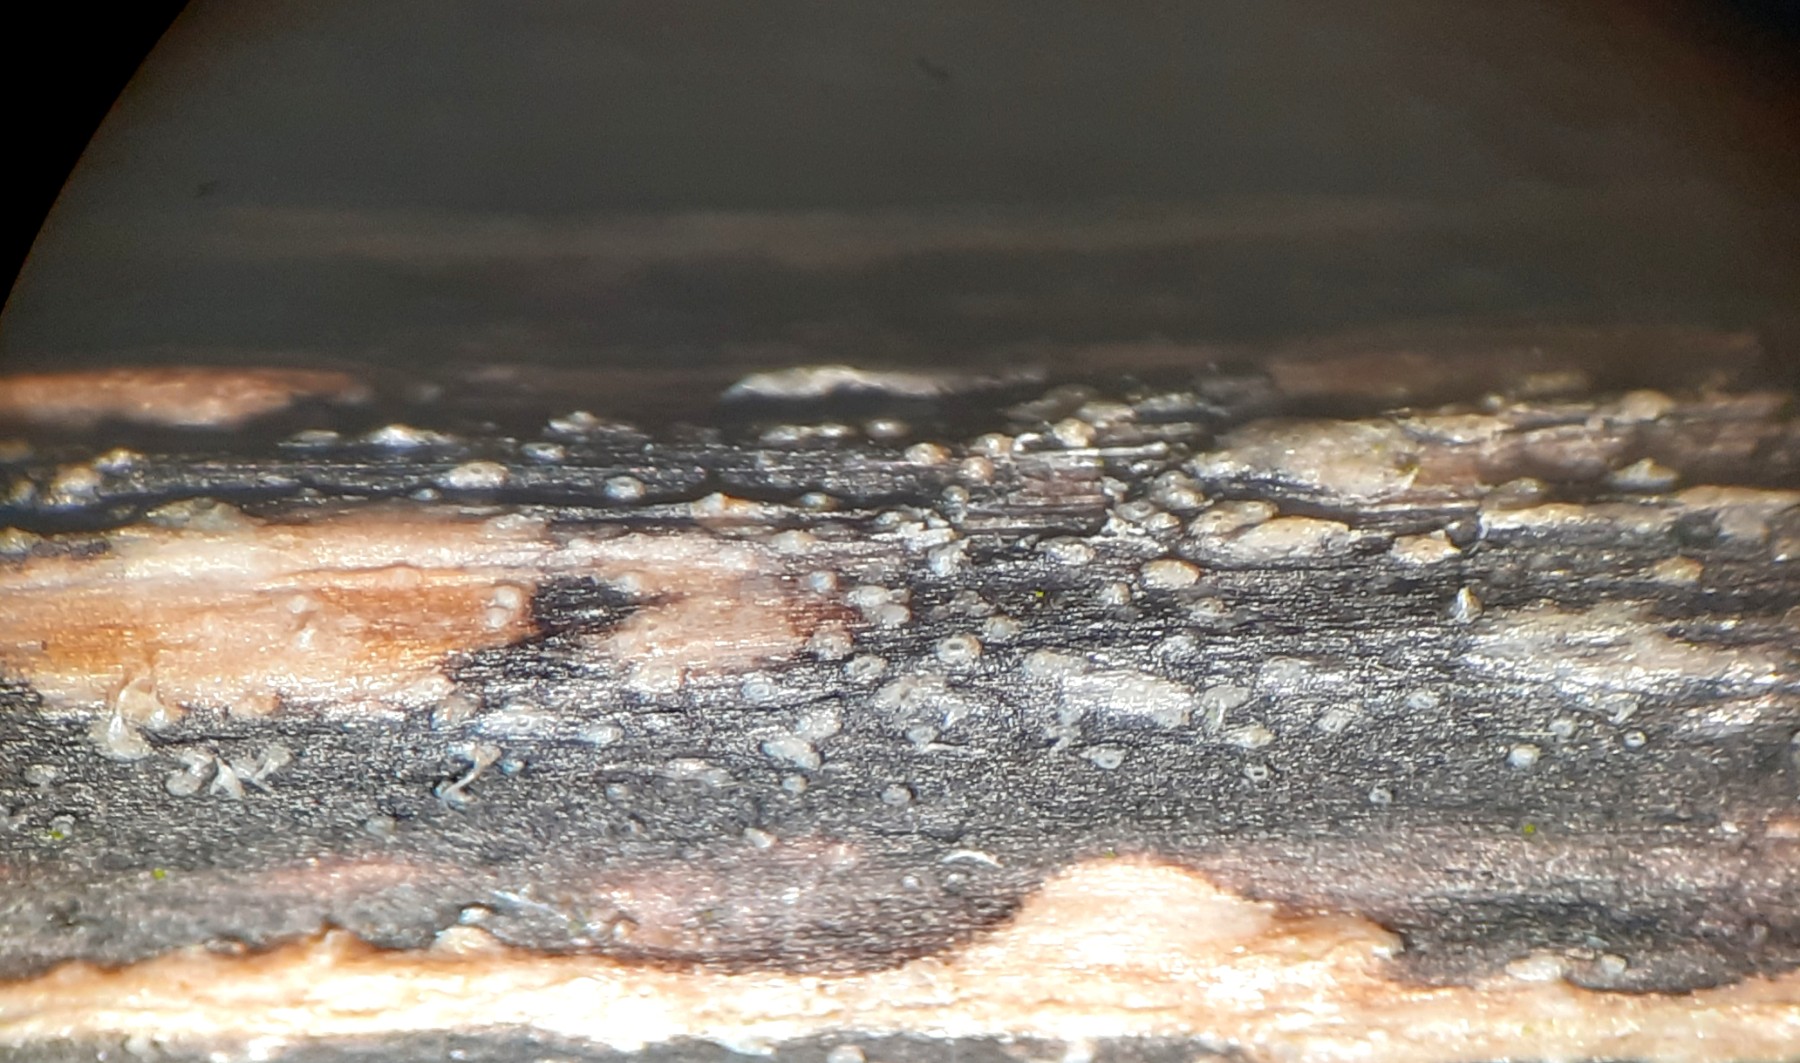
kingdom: Fungi
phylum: Ascomycota
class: Sordariomycetes
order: Diaporthales
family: Diaporthaceae
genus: Diaporthopsis
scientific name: Diaporthopsis urticae
